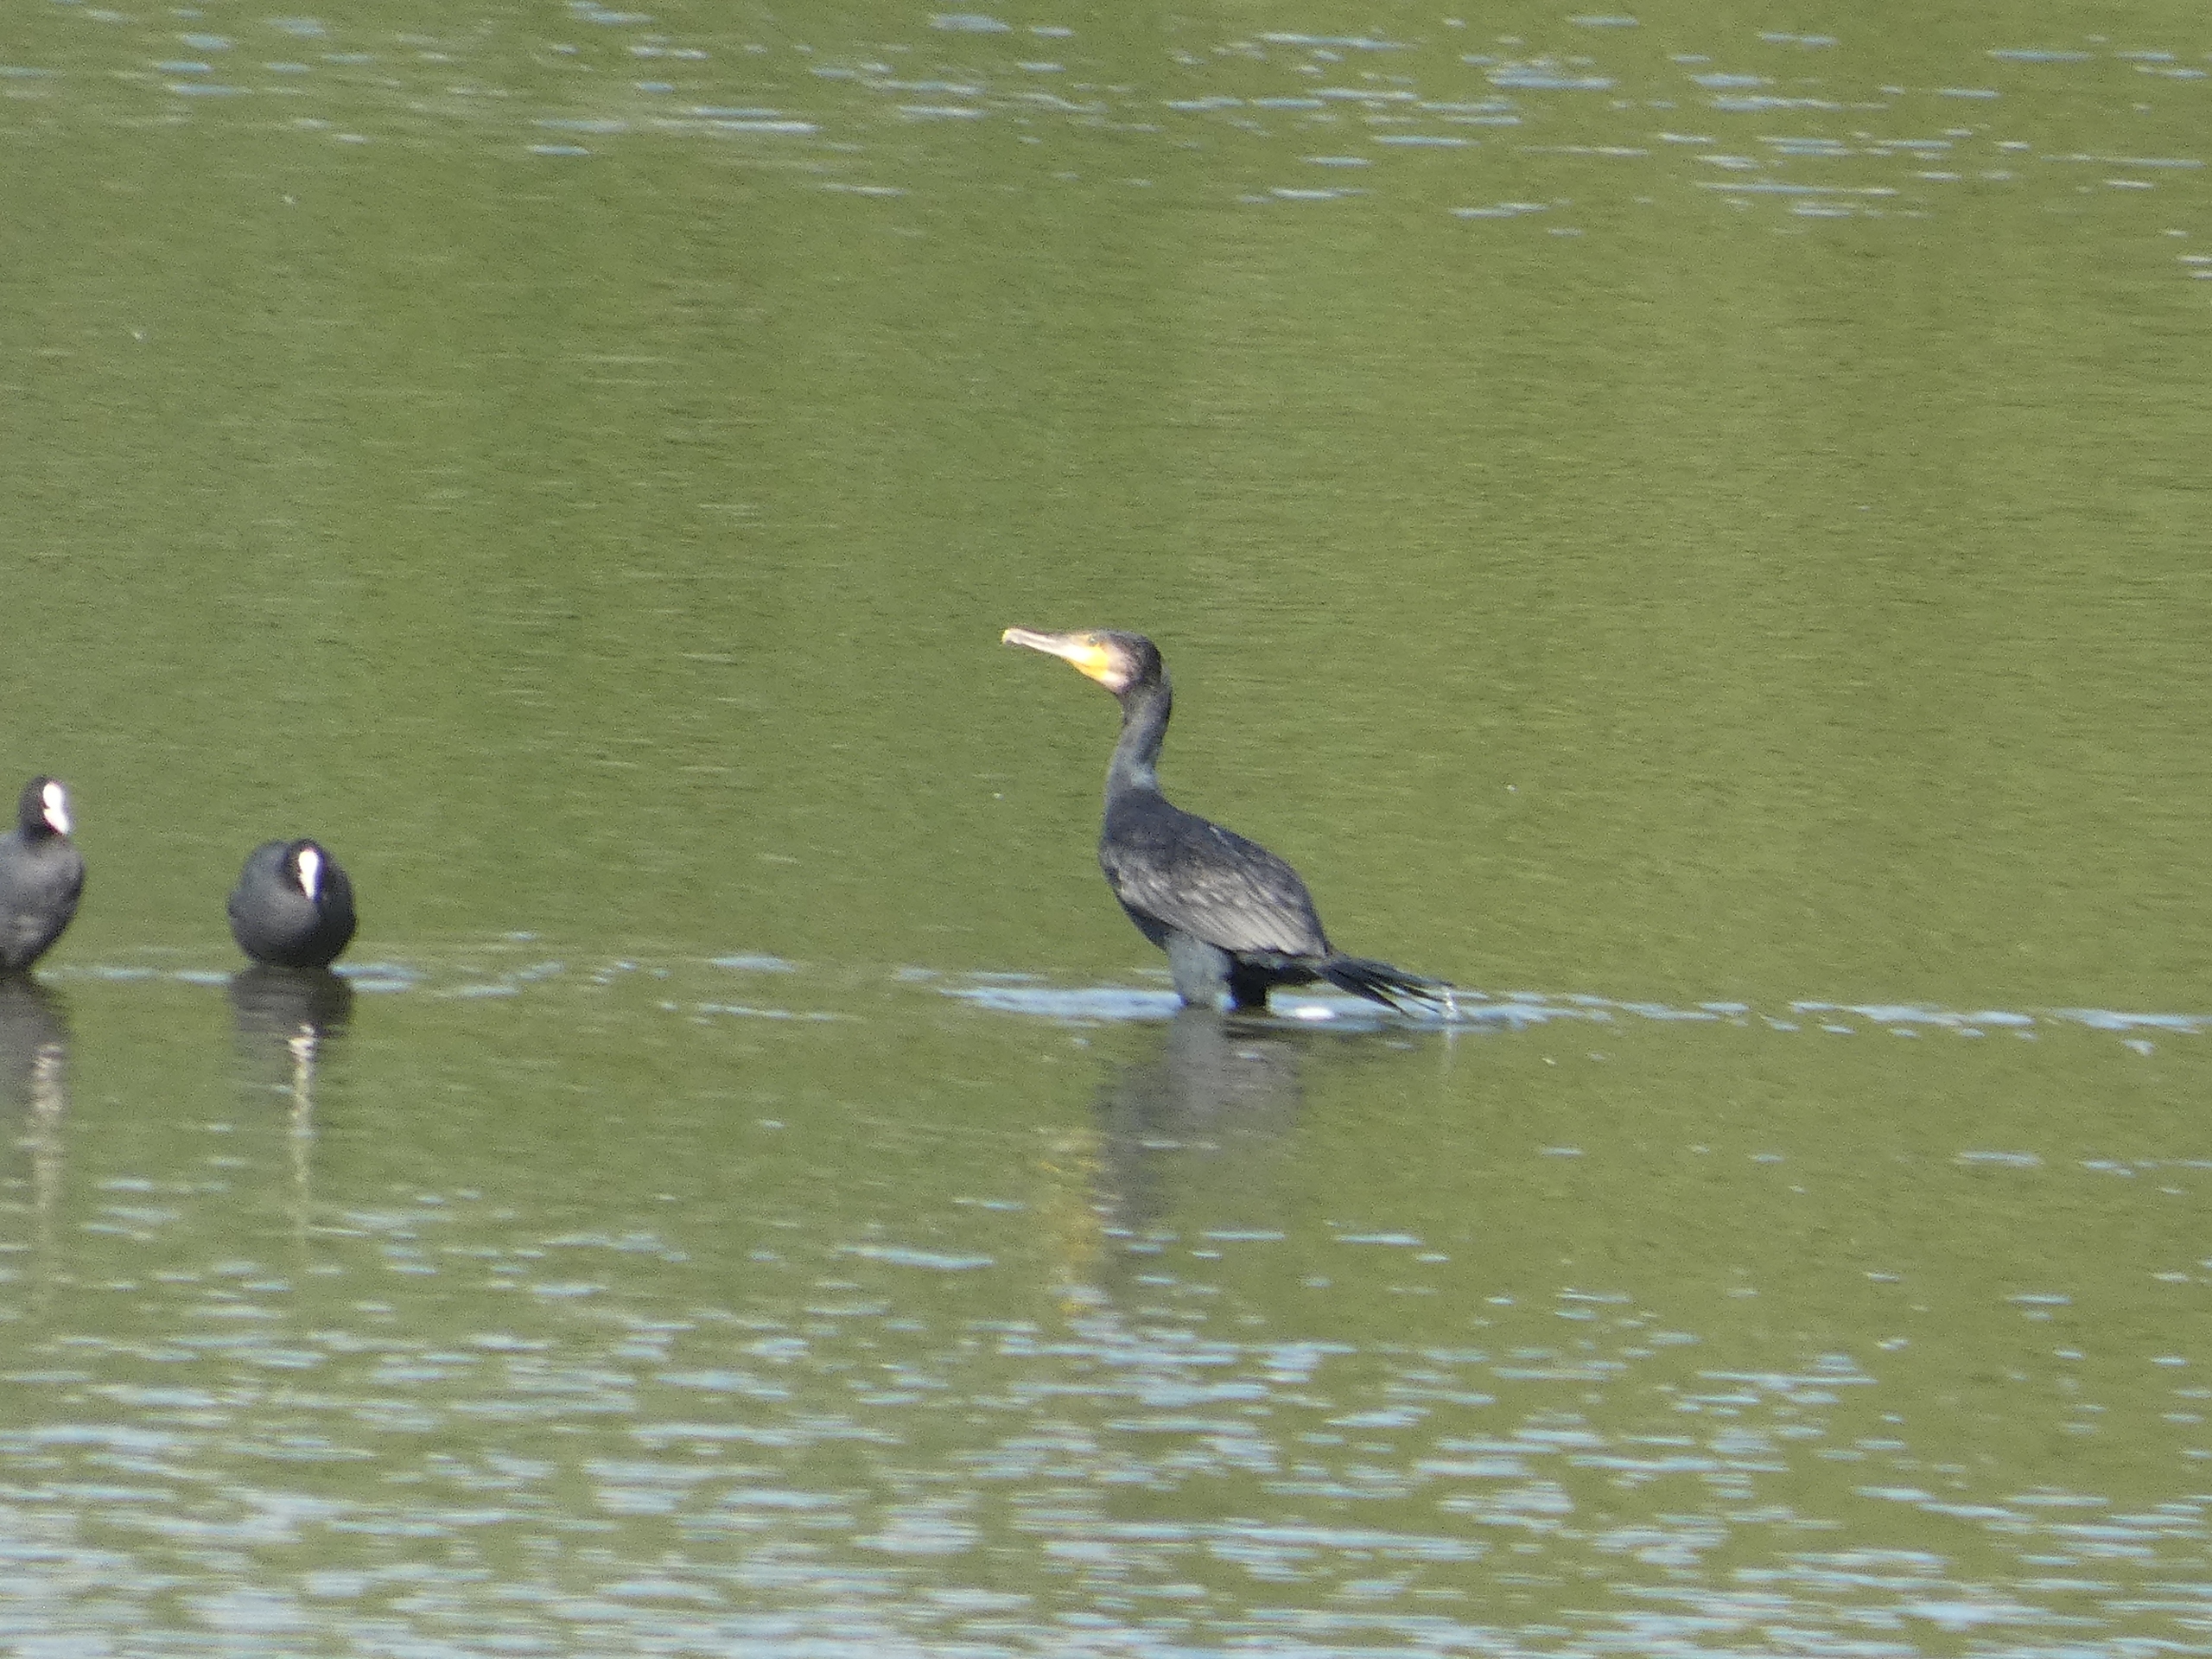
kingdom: Animalia
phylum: Chordata
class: Aves
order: Suliformes
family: Phalacrocoracidae
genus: Phalacrocorax
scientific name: Phalacrocorax carbo
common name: Skarv
